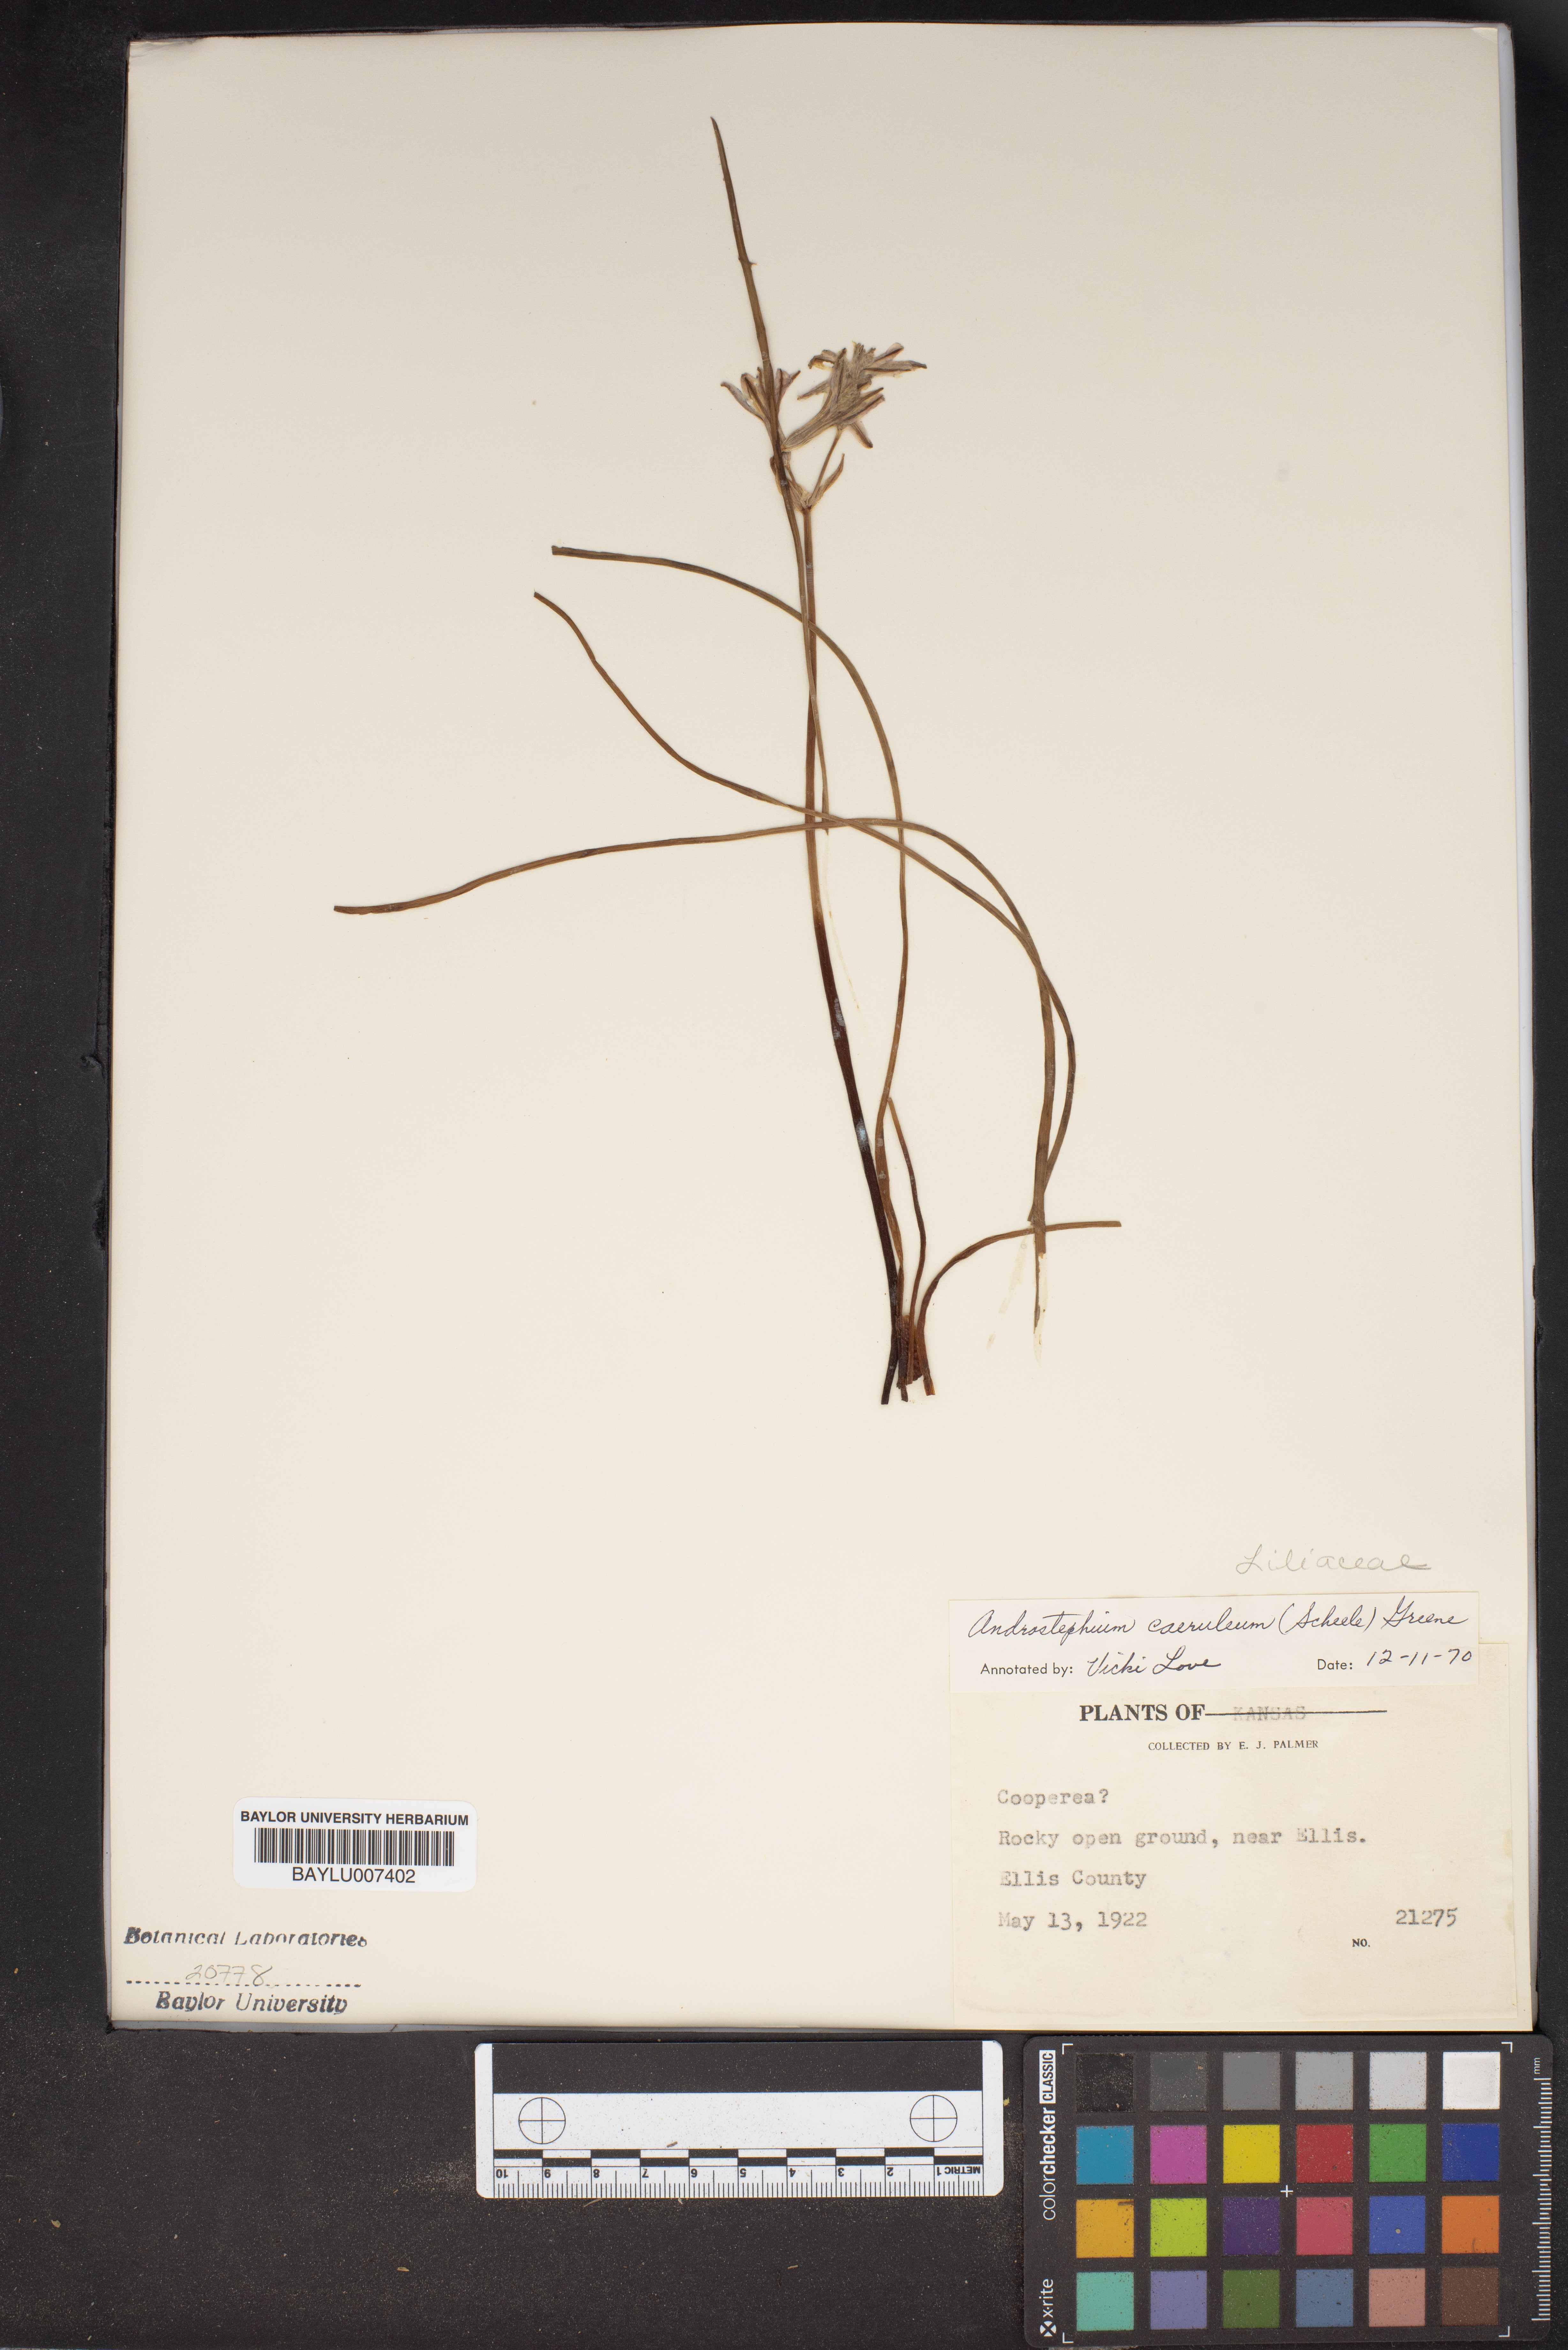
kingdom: Plantae
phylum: Tracheophyta
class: Liliopsida
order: Asparagales
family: Asparagaceae
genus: Androstephium
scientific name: Androstephium caeruleum
